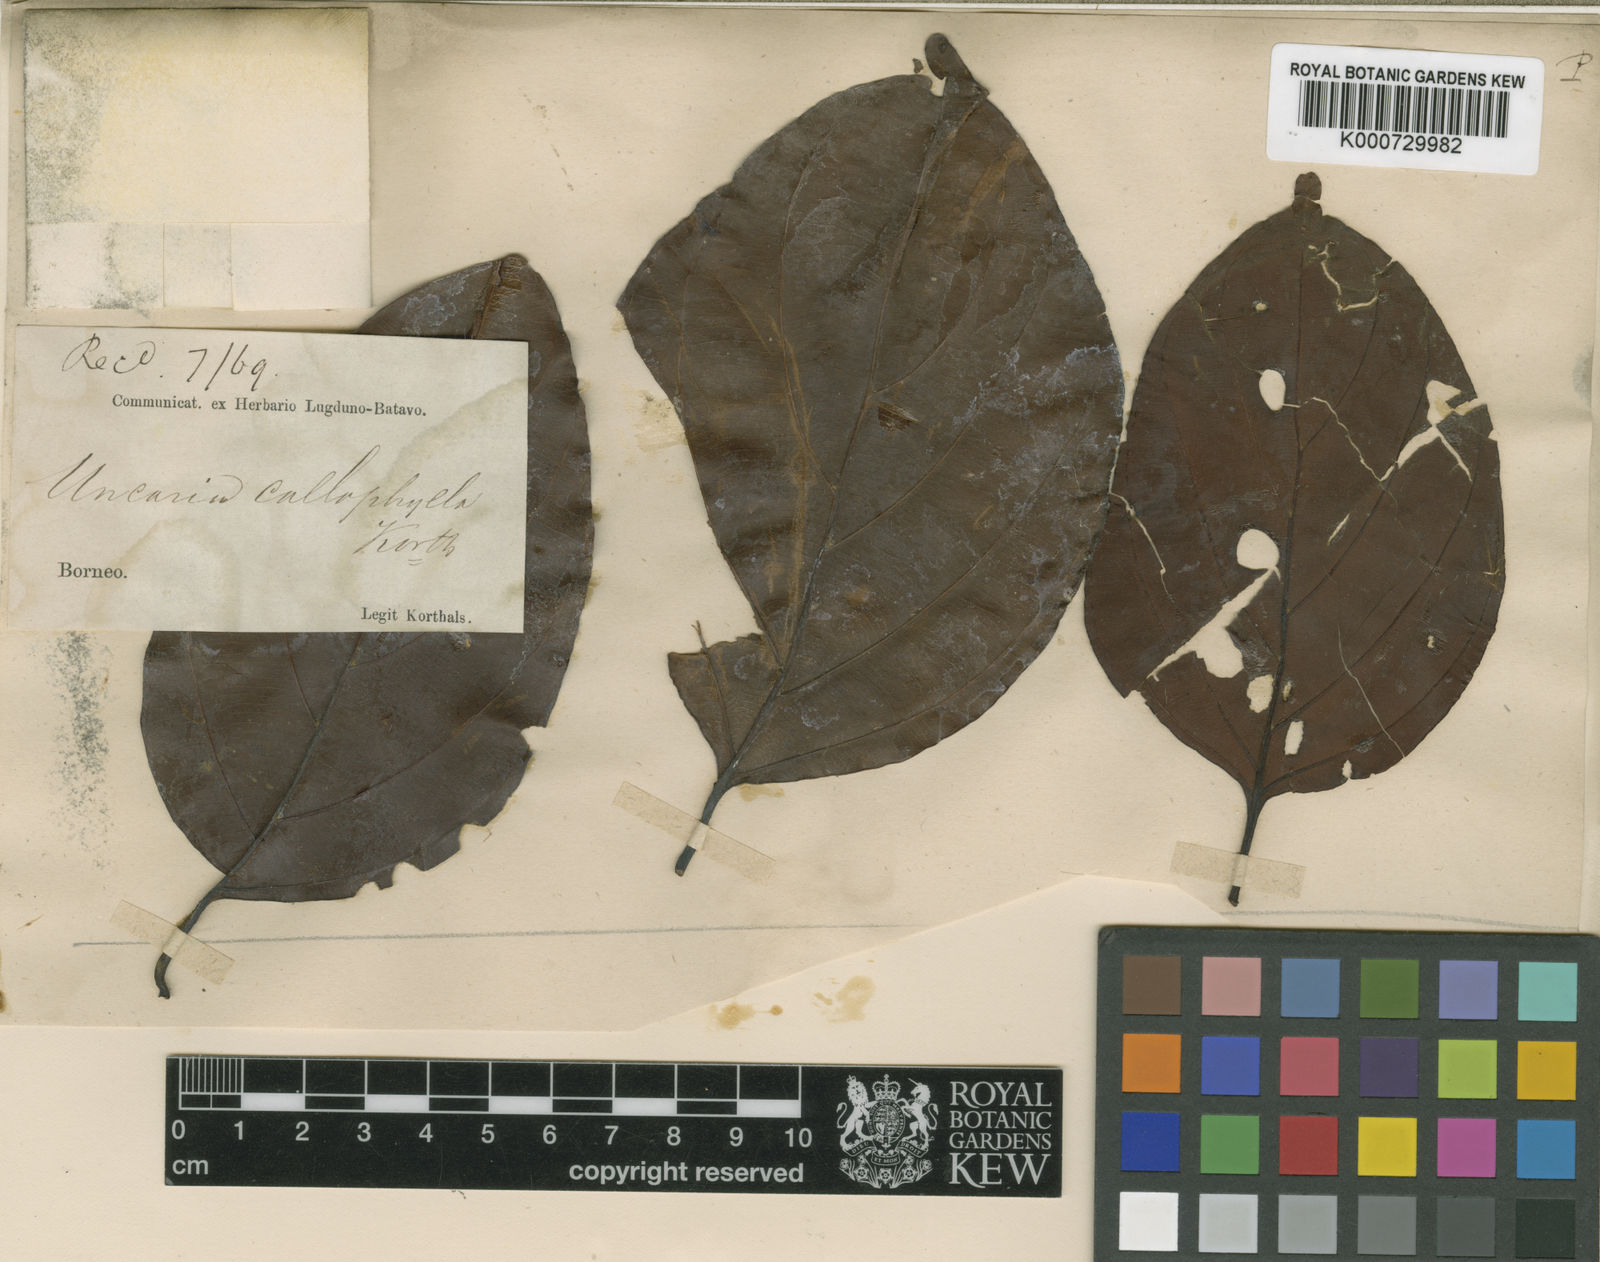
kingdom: Plantae
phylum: Tracheophyta
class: Magnoliopsida
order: Gentianales
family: Rubiaceae
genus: Uncaria
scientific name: Uncaria callophylla
